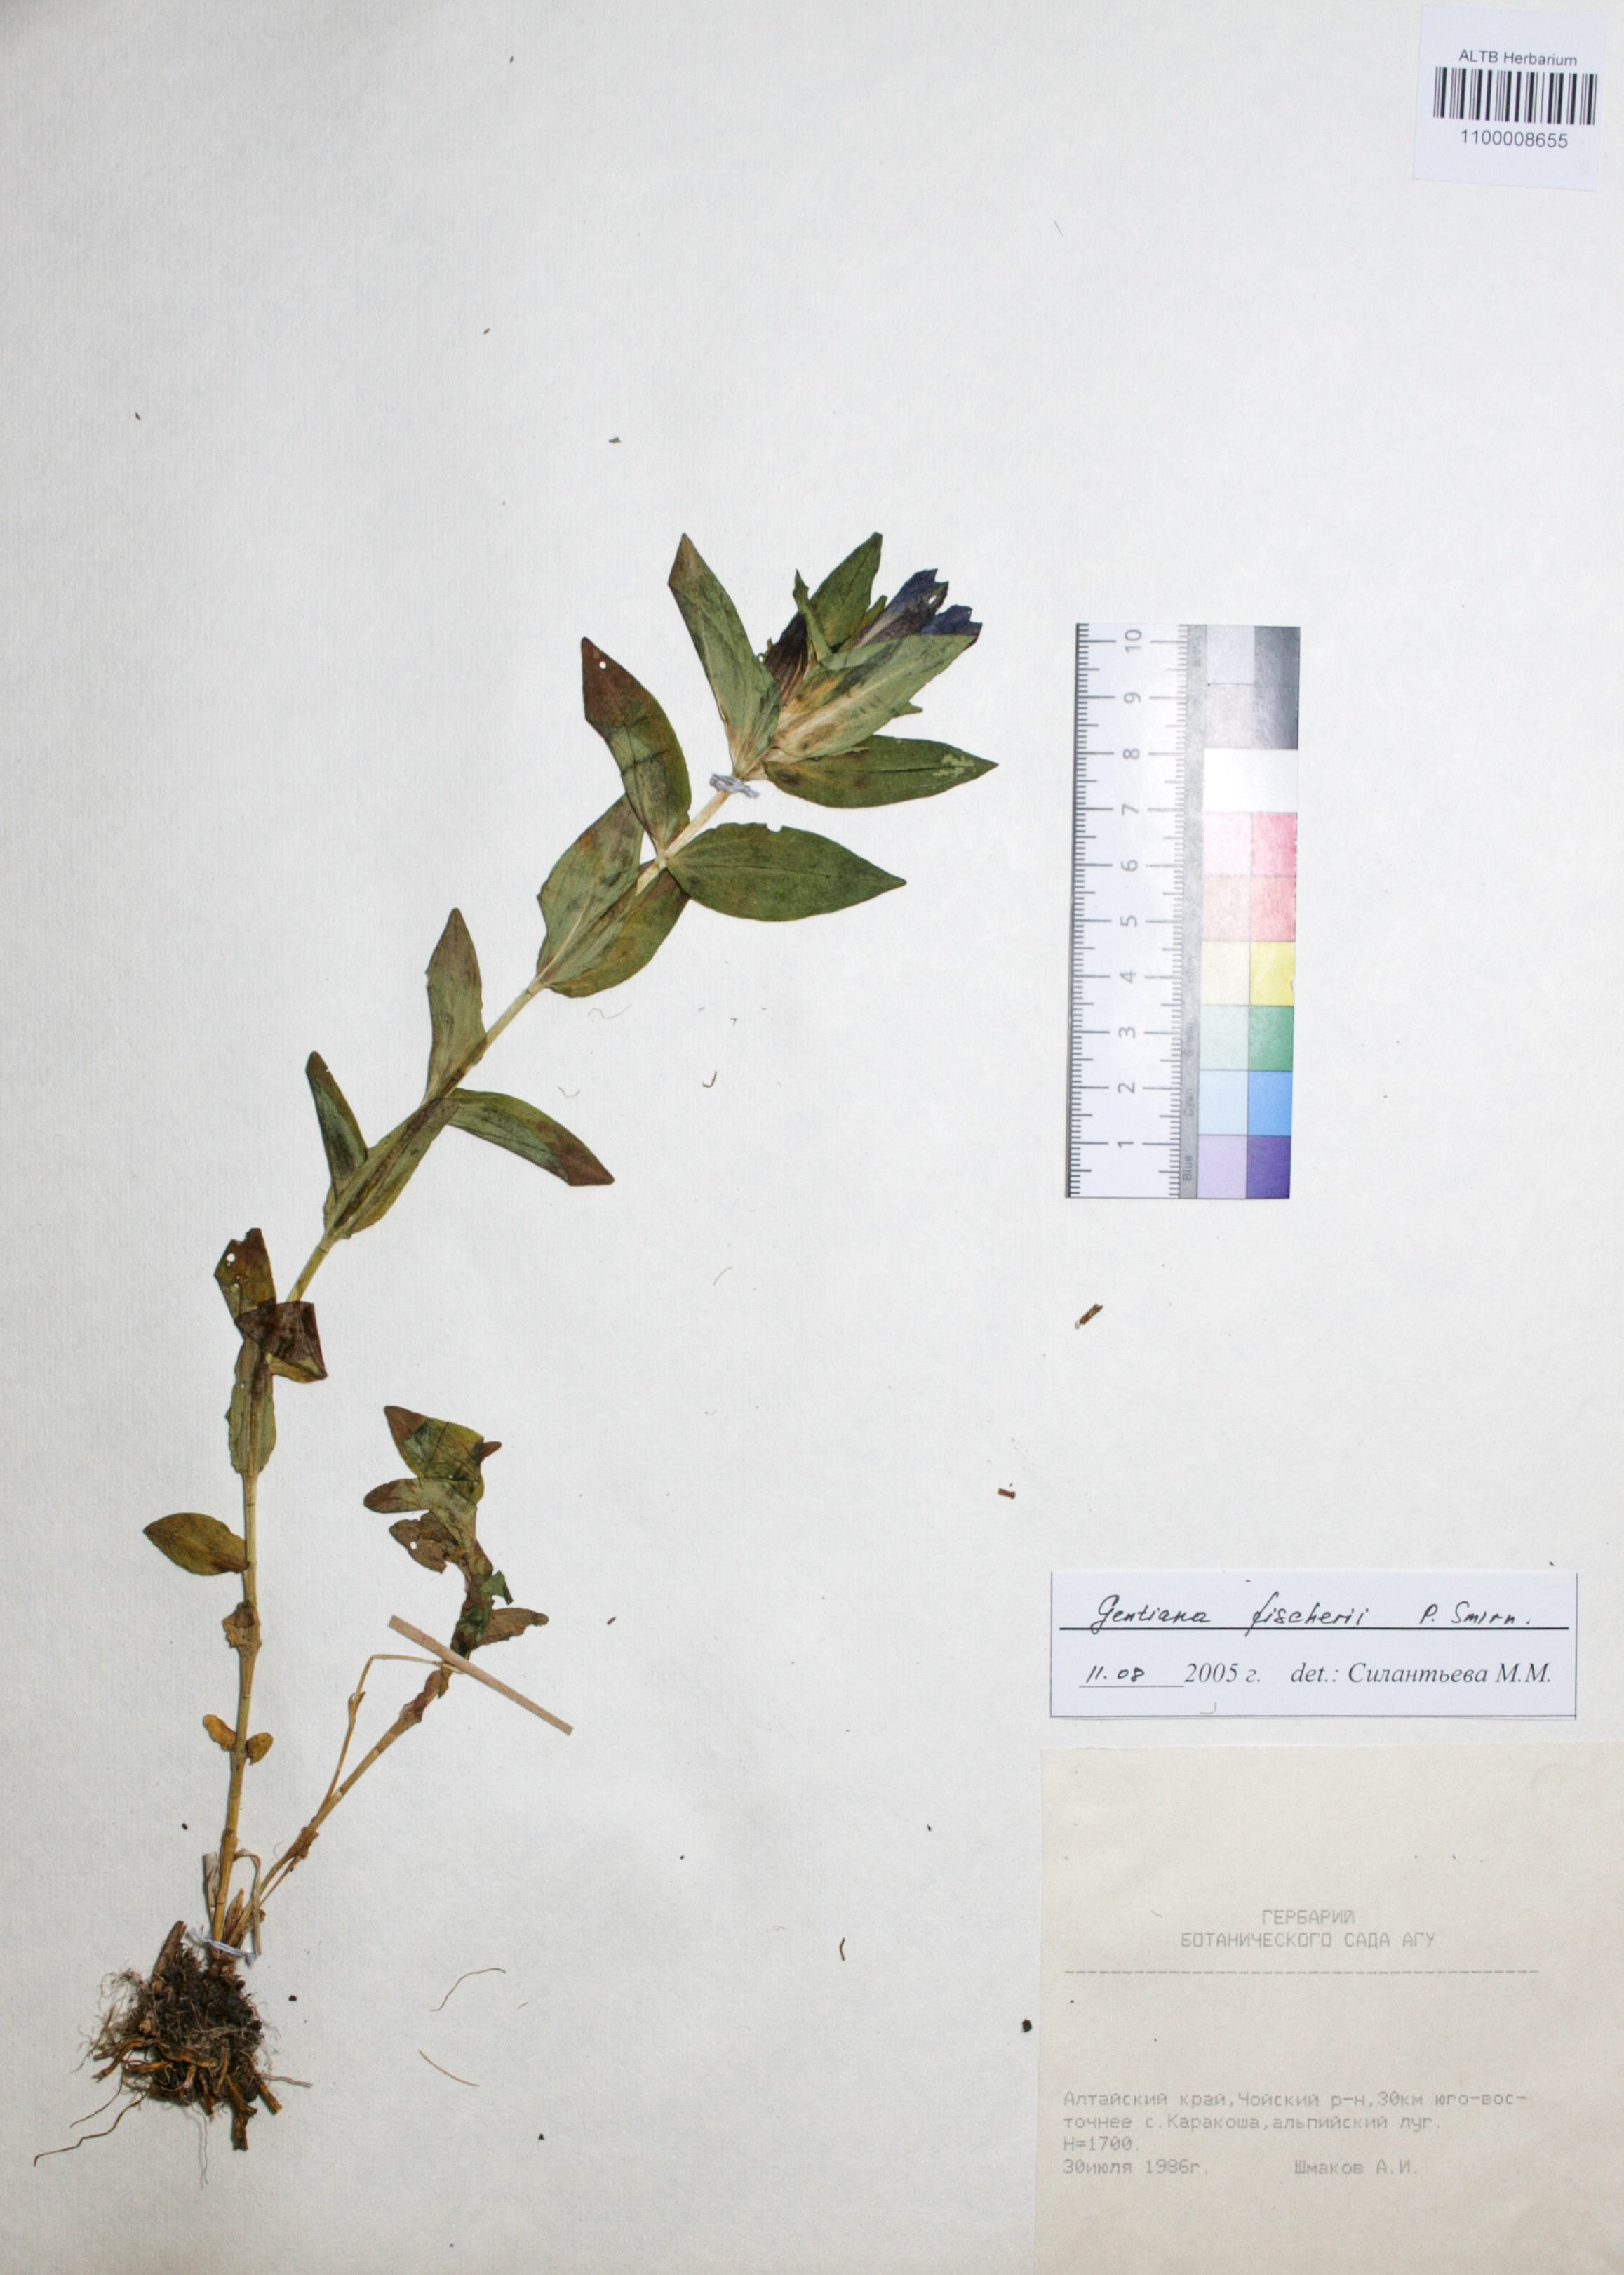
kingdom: Plantae
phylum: Tracheophyta
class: Magnoliopsida
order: Gentianales
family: Gentianaceae
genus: Gentiana
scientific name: Gentiana dschungarica
